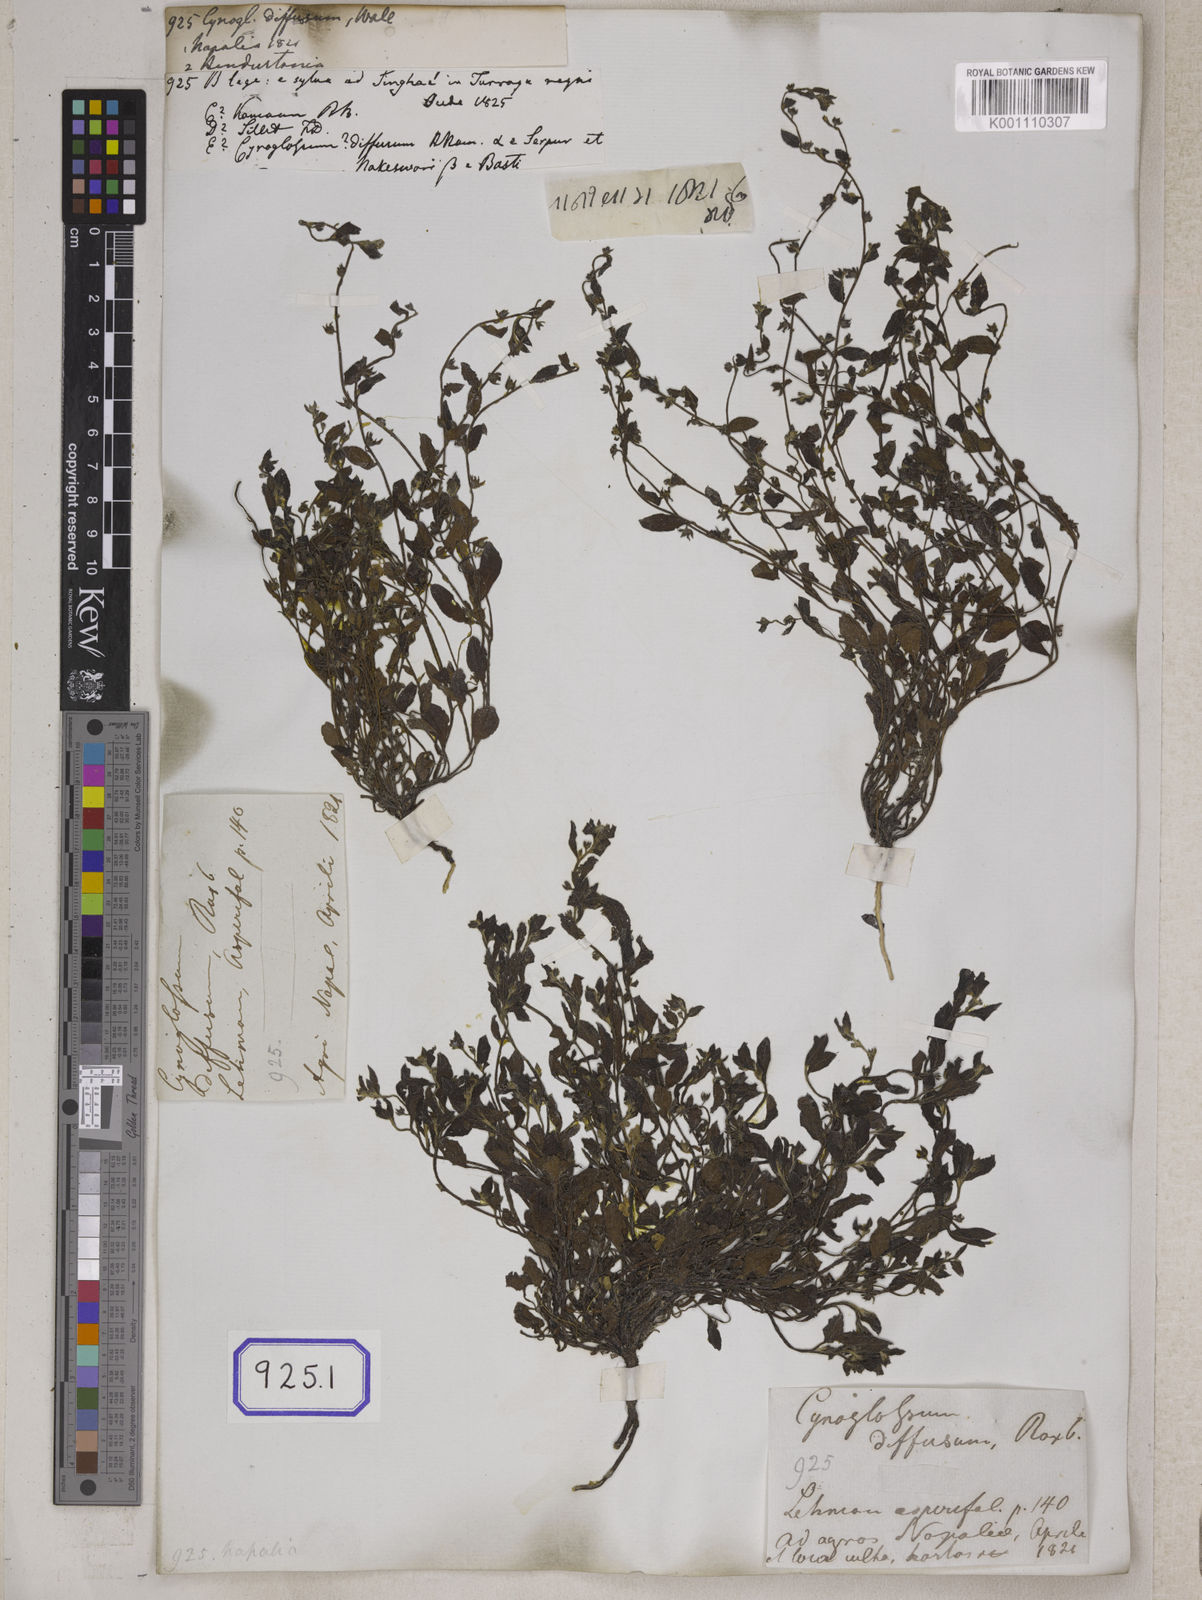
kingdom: Plantae
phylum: Tracheophyta
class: Magnoliopsida
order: Boraginales
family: Boraginaceae
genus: Cynoglossum
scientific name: Cynoglossum
